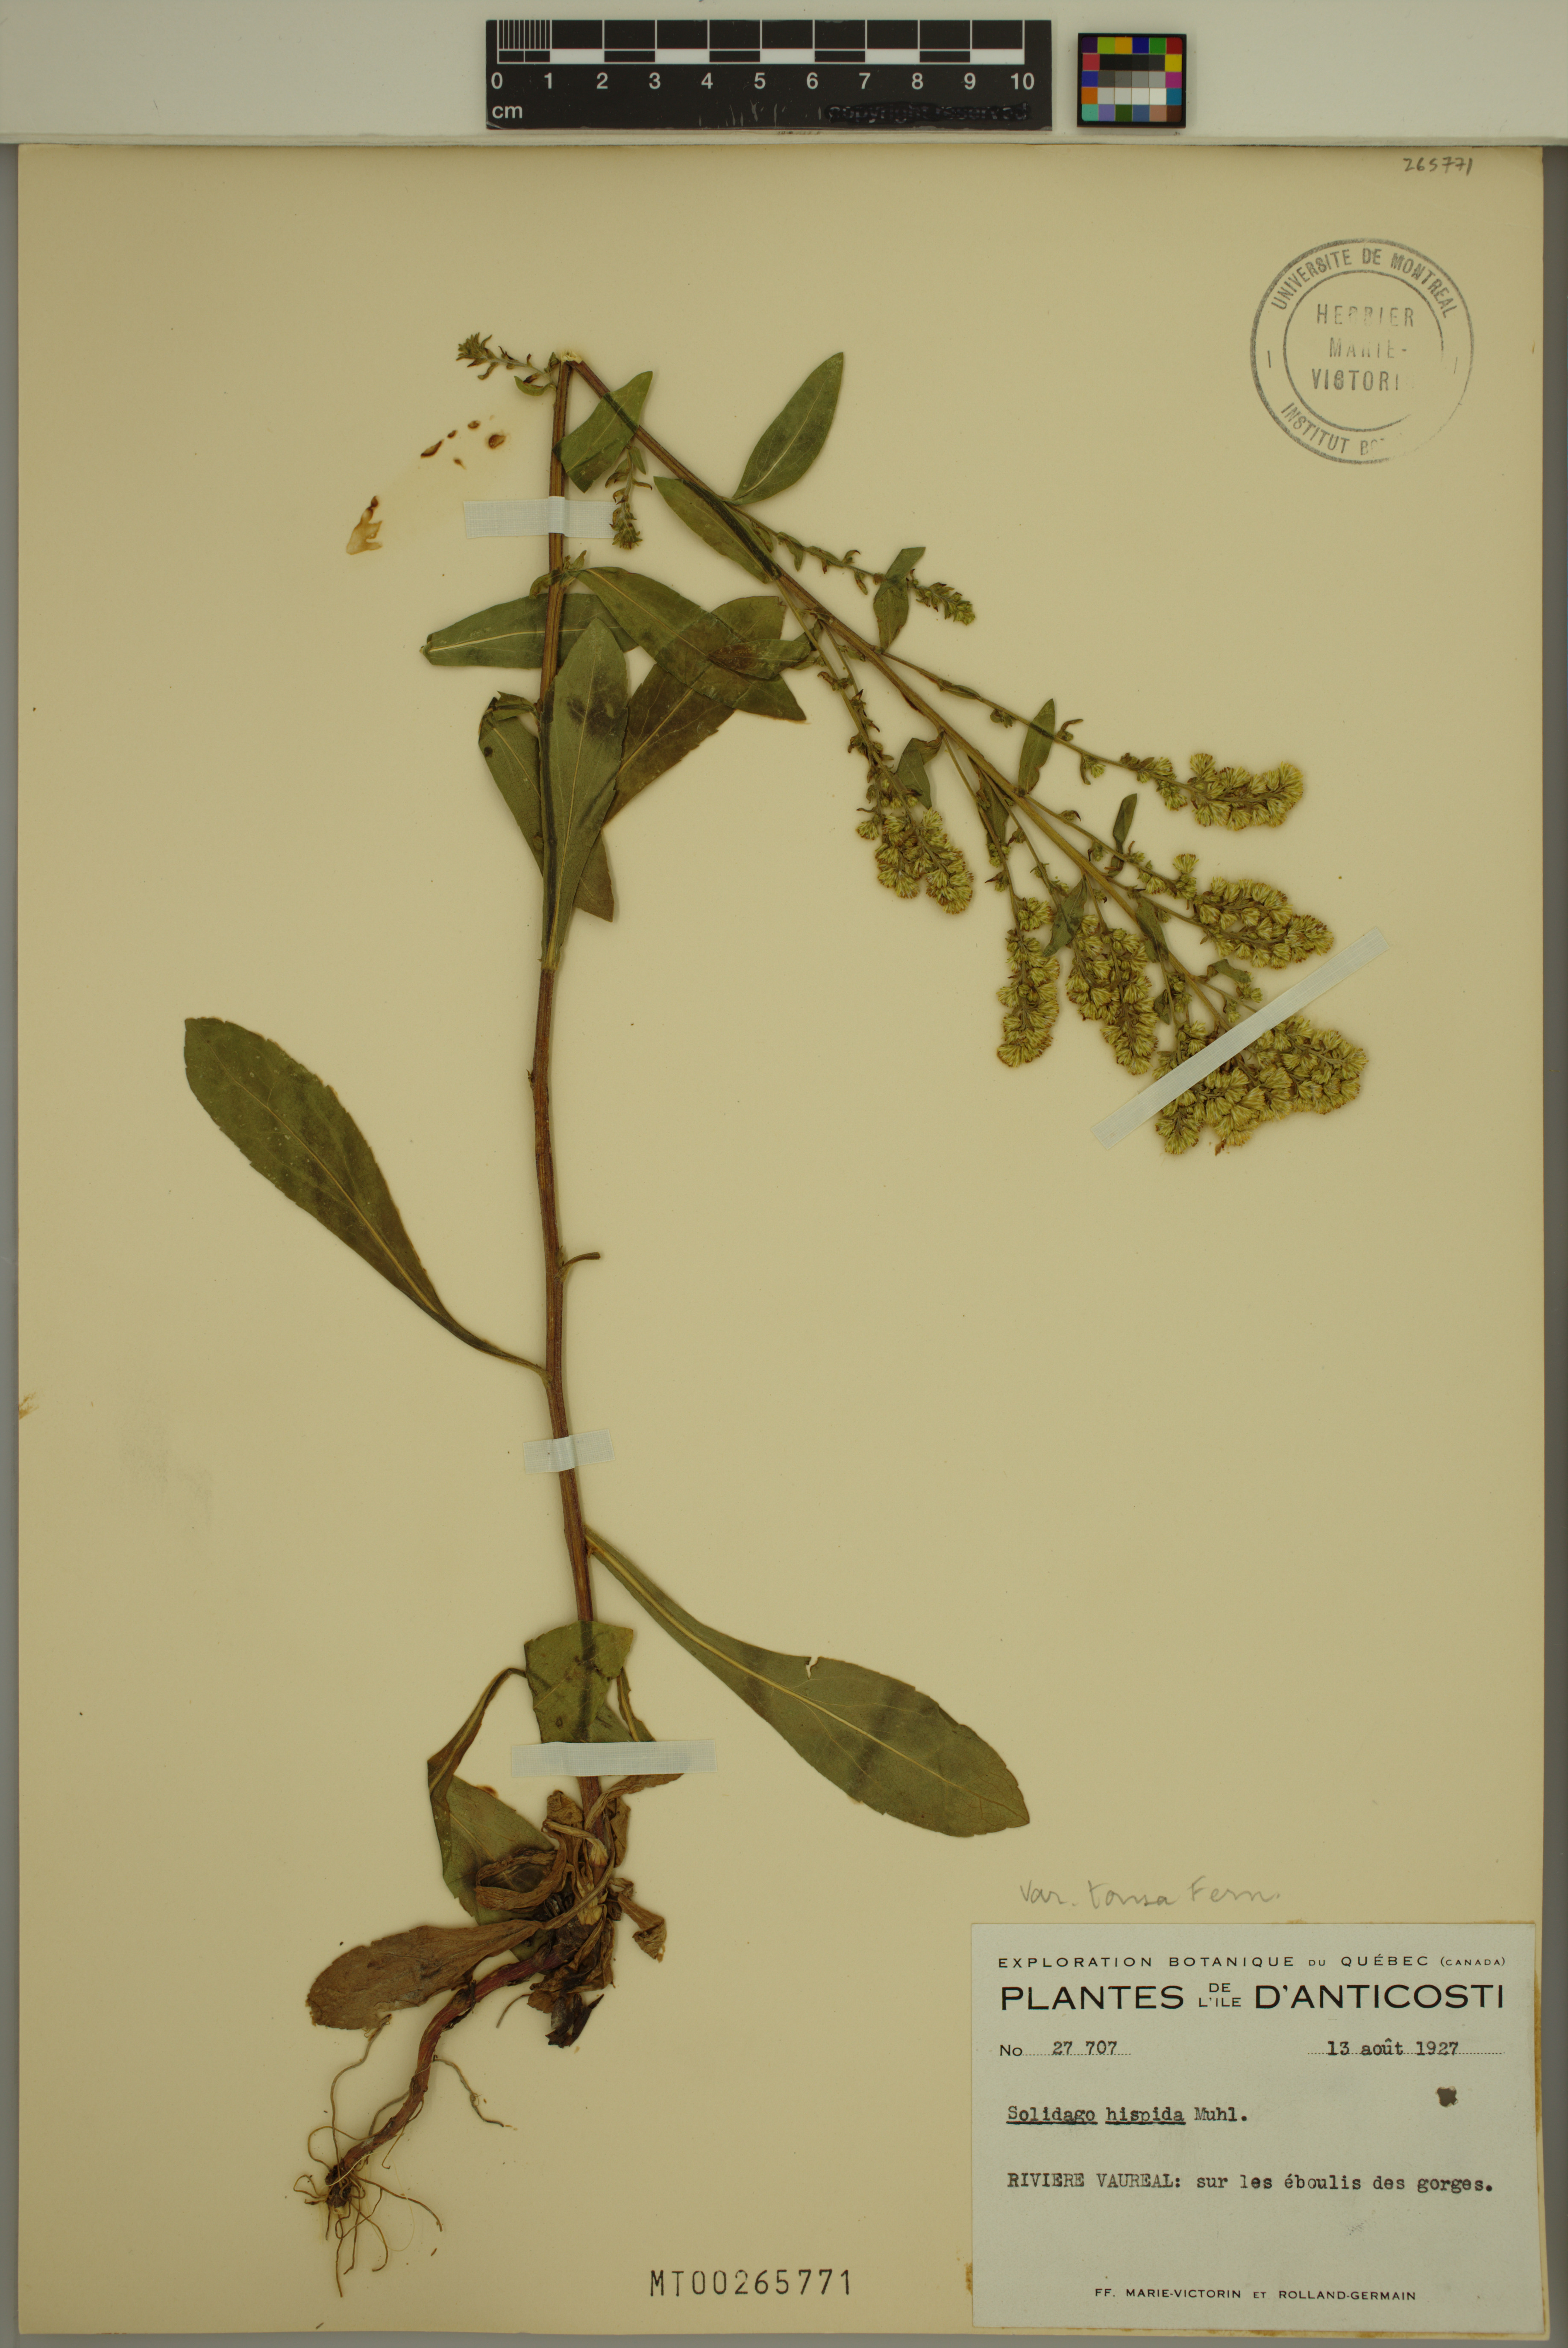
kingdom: Plantae
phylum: Tracheophyta
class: Magnoliopsida
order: Asterales
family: Asteraceae
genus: Solidago
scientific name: Solidago hispida
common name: Hairy goldenrod
